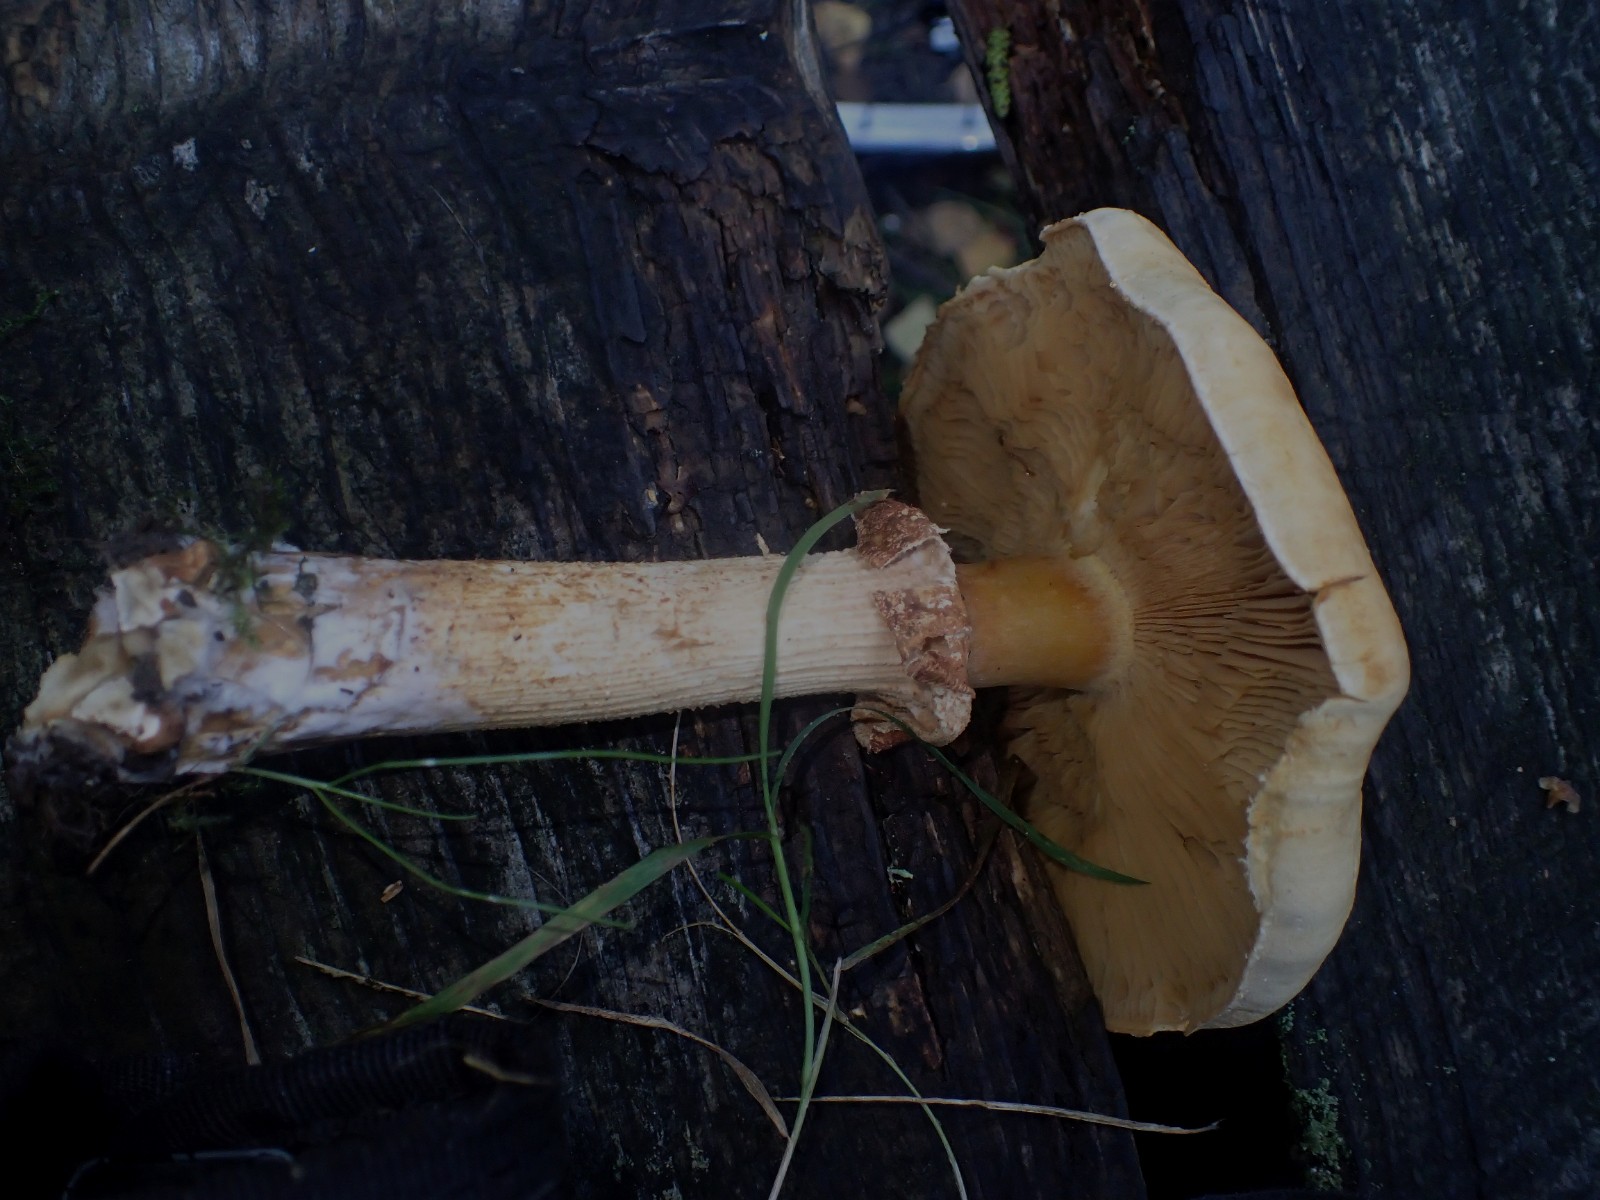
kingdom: Fungi
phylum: Basidiomycota
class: Agaricomycetes
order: Agaricales
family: Tricholomataceae
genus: Phaeolepiota
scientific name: Phaeolepiota aurea
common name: gyldenhat
